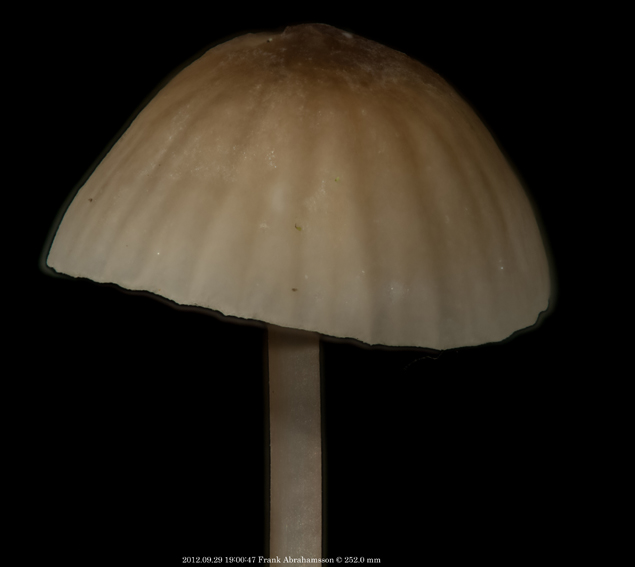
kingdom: Fungi
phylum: Basidiomycota
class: Agaricomycetes
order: Agaricales
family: Mycenaceae
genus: Mycena
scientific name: Mycena galopus
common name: hvidmælket huesvamp
